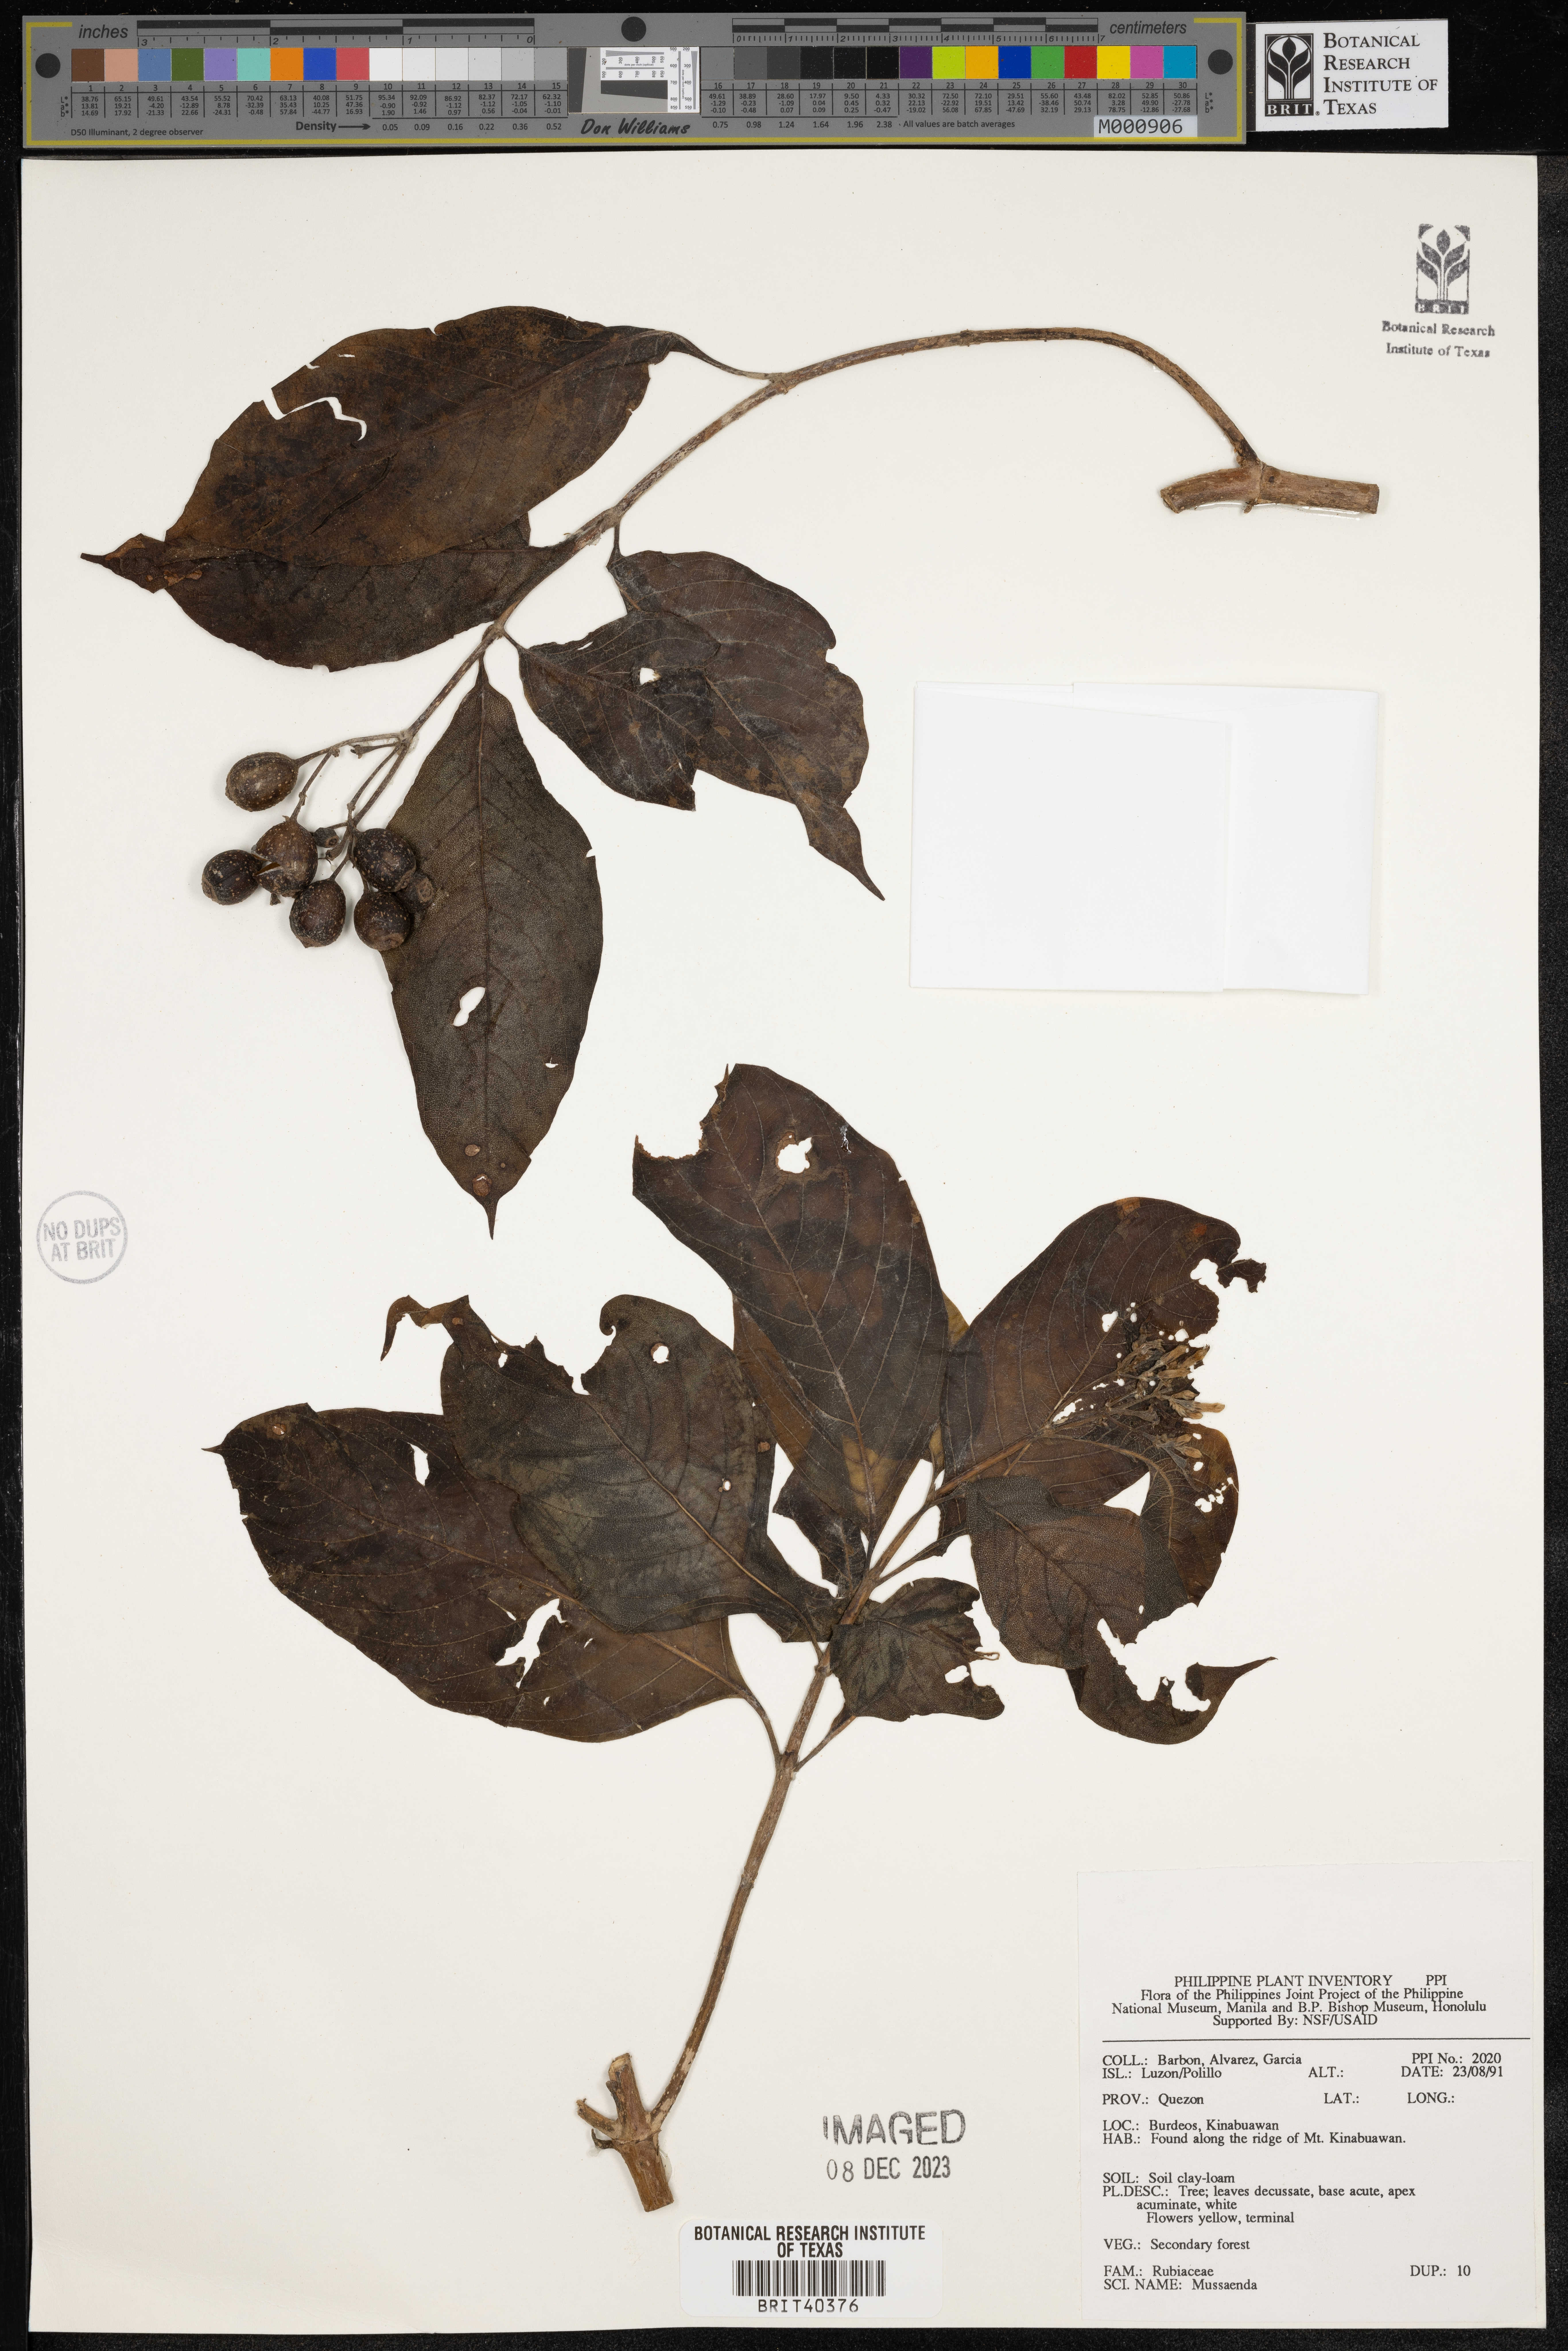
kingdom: Plantae
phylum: Tracheophyta
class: Magnoliopsida
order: Gentianales
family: Rubiaceae
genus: Mussaenda
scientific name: Mussaenda
